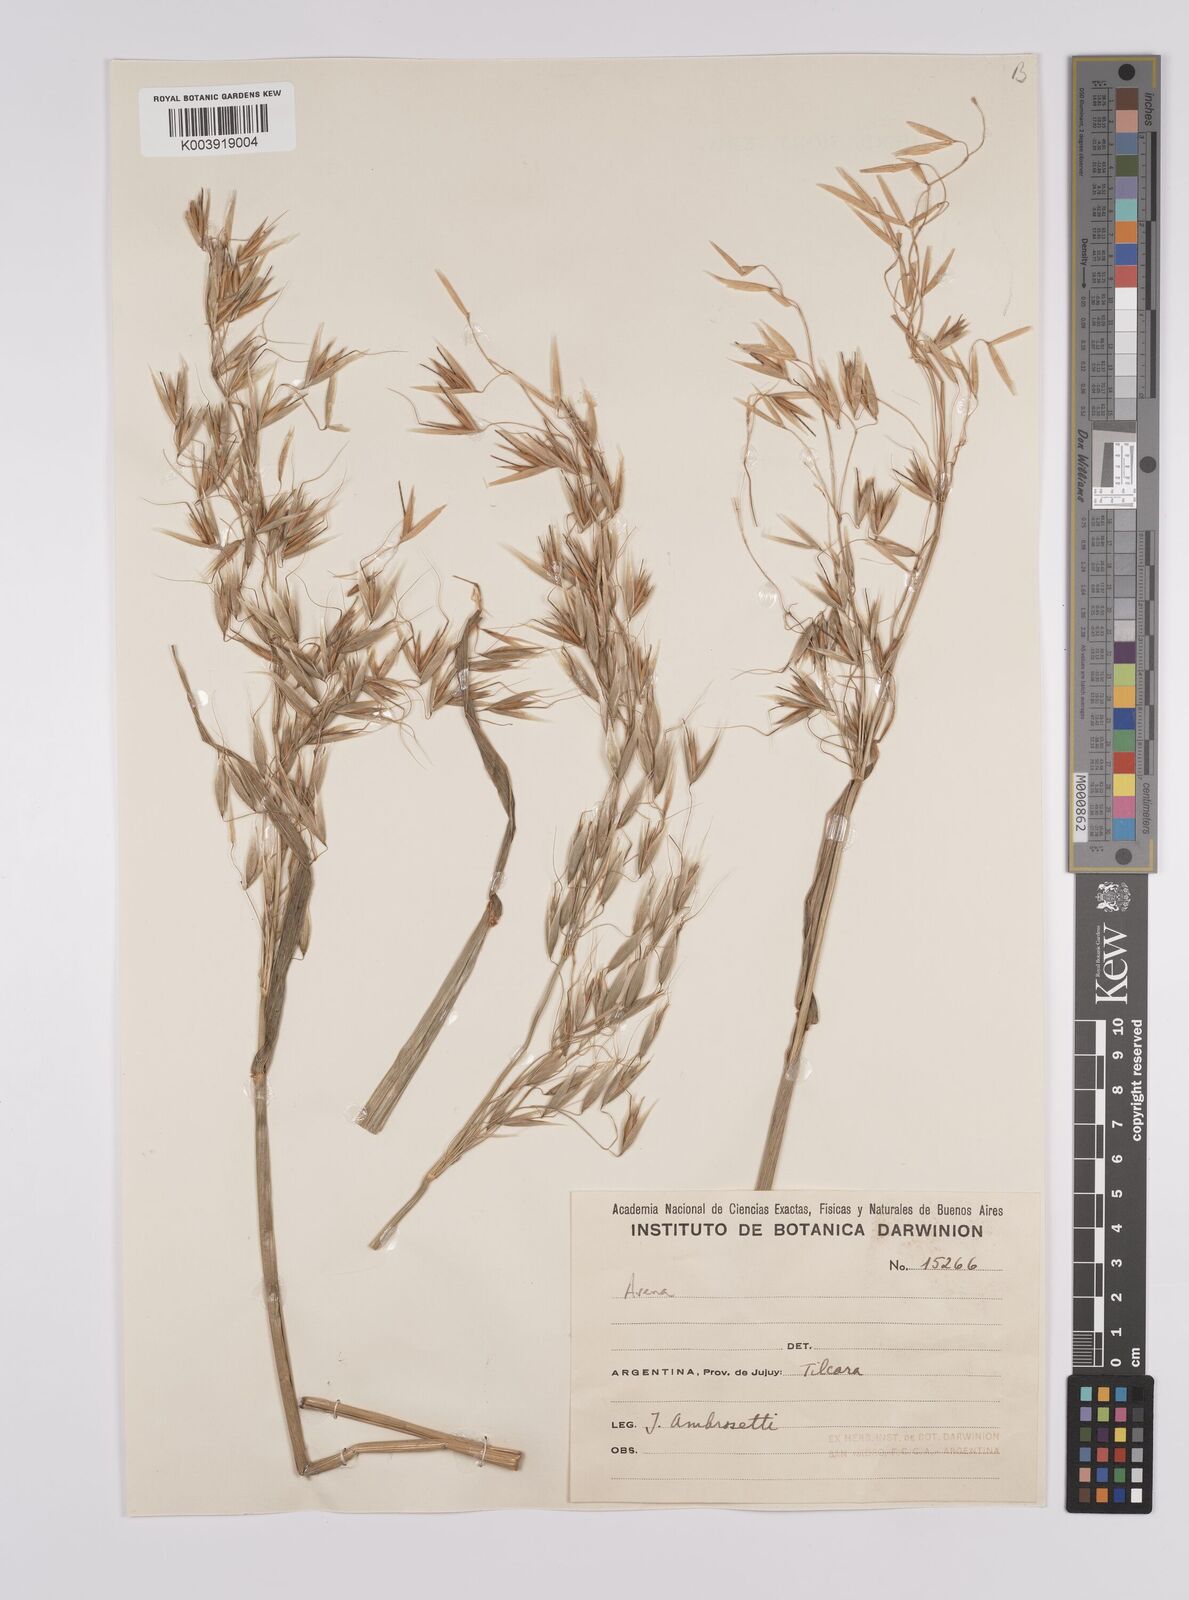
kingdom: Plantae
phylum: Tracheophyta
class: Liliopsida
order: Poales
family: Poaceae
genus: Avena
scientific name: Avena
